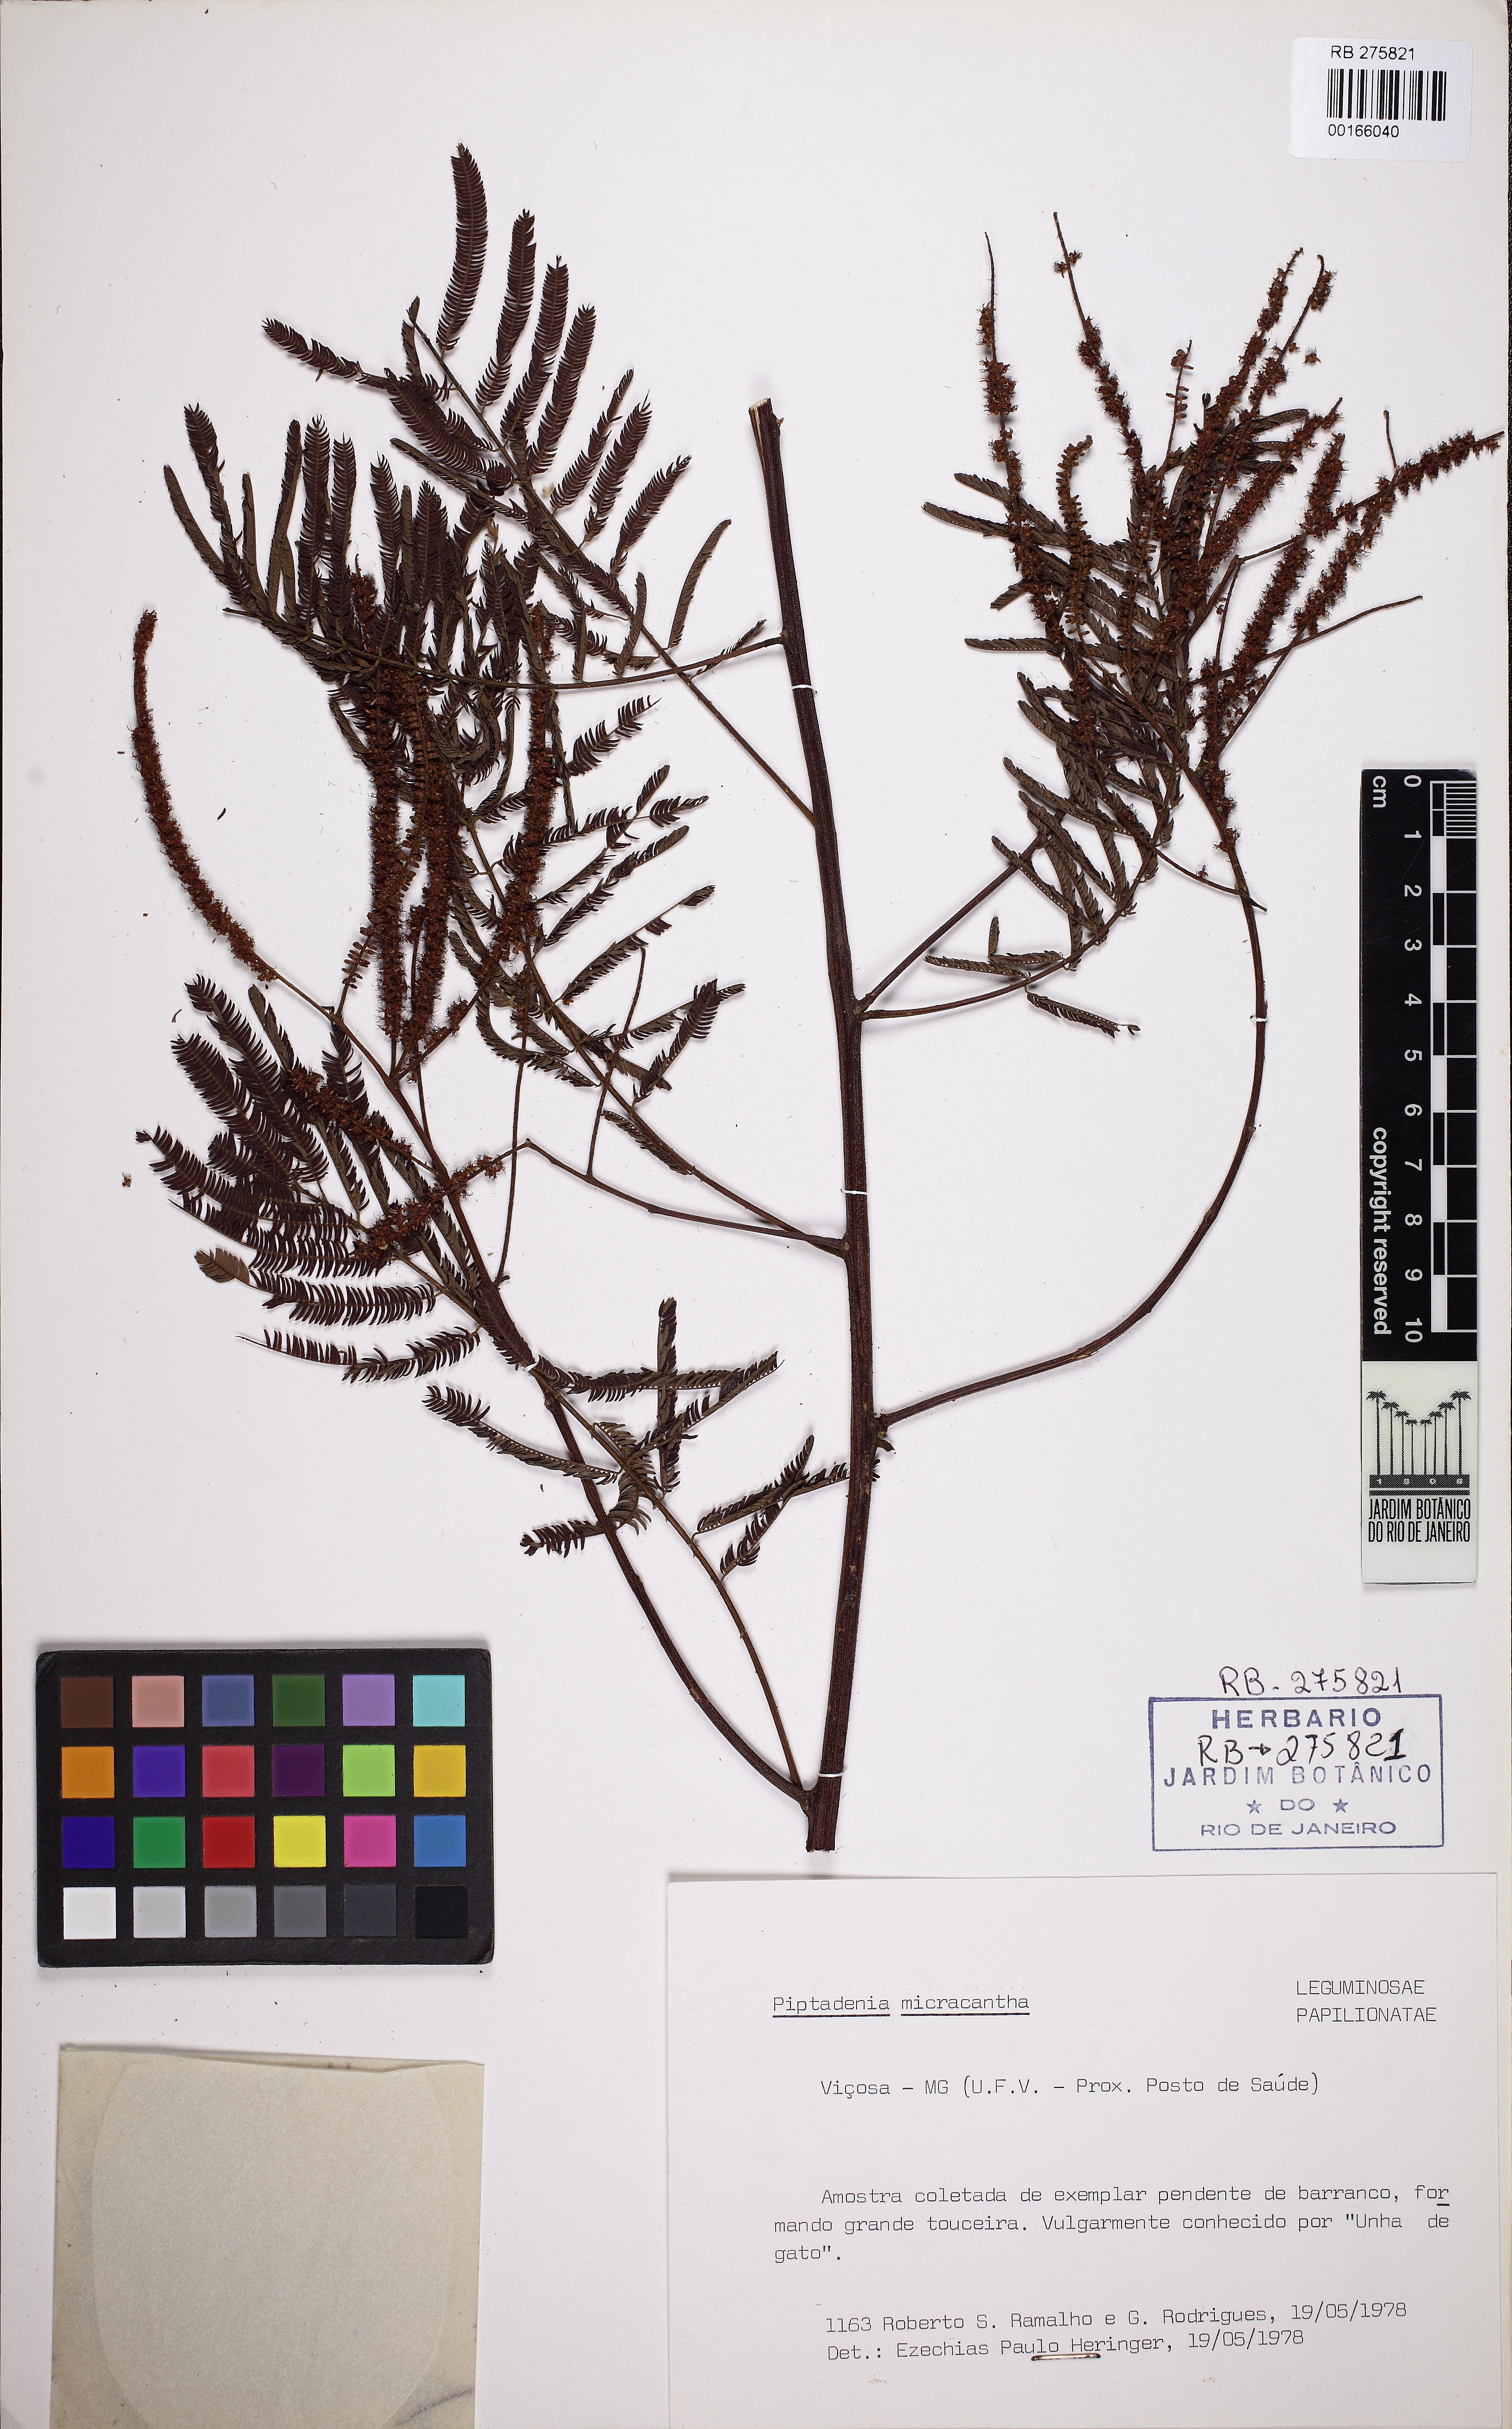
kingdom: Plantae
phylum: Tracheophyta
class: Magnoliopsida
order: Fabales
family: Fabaceae
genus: Piptadenia
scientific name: Piptadenia micracantha
